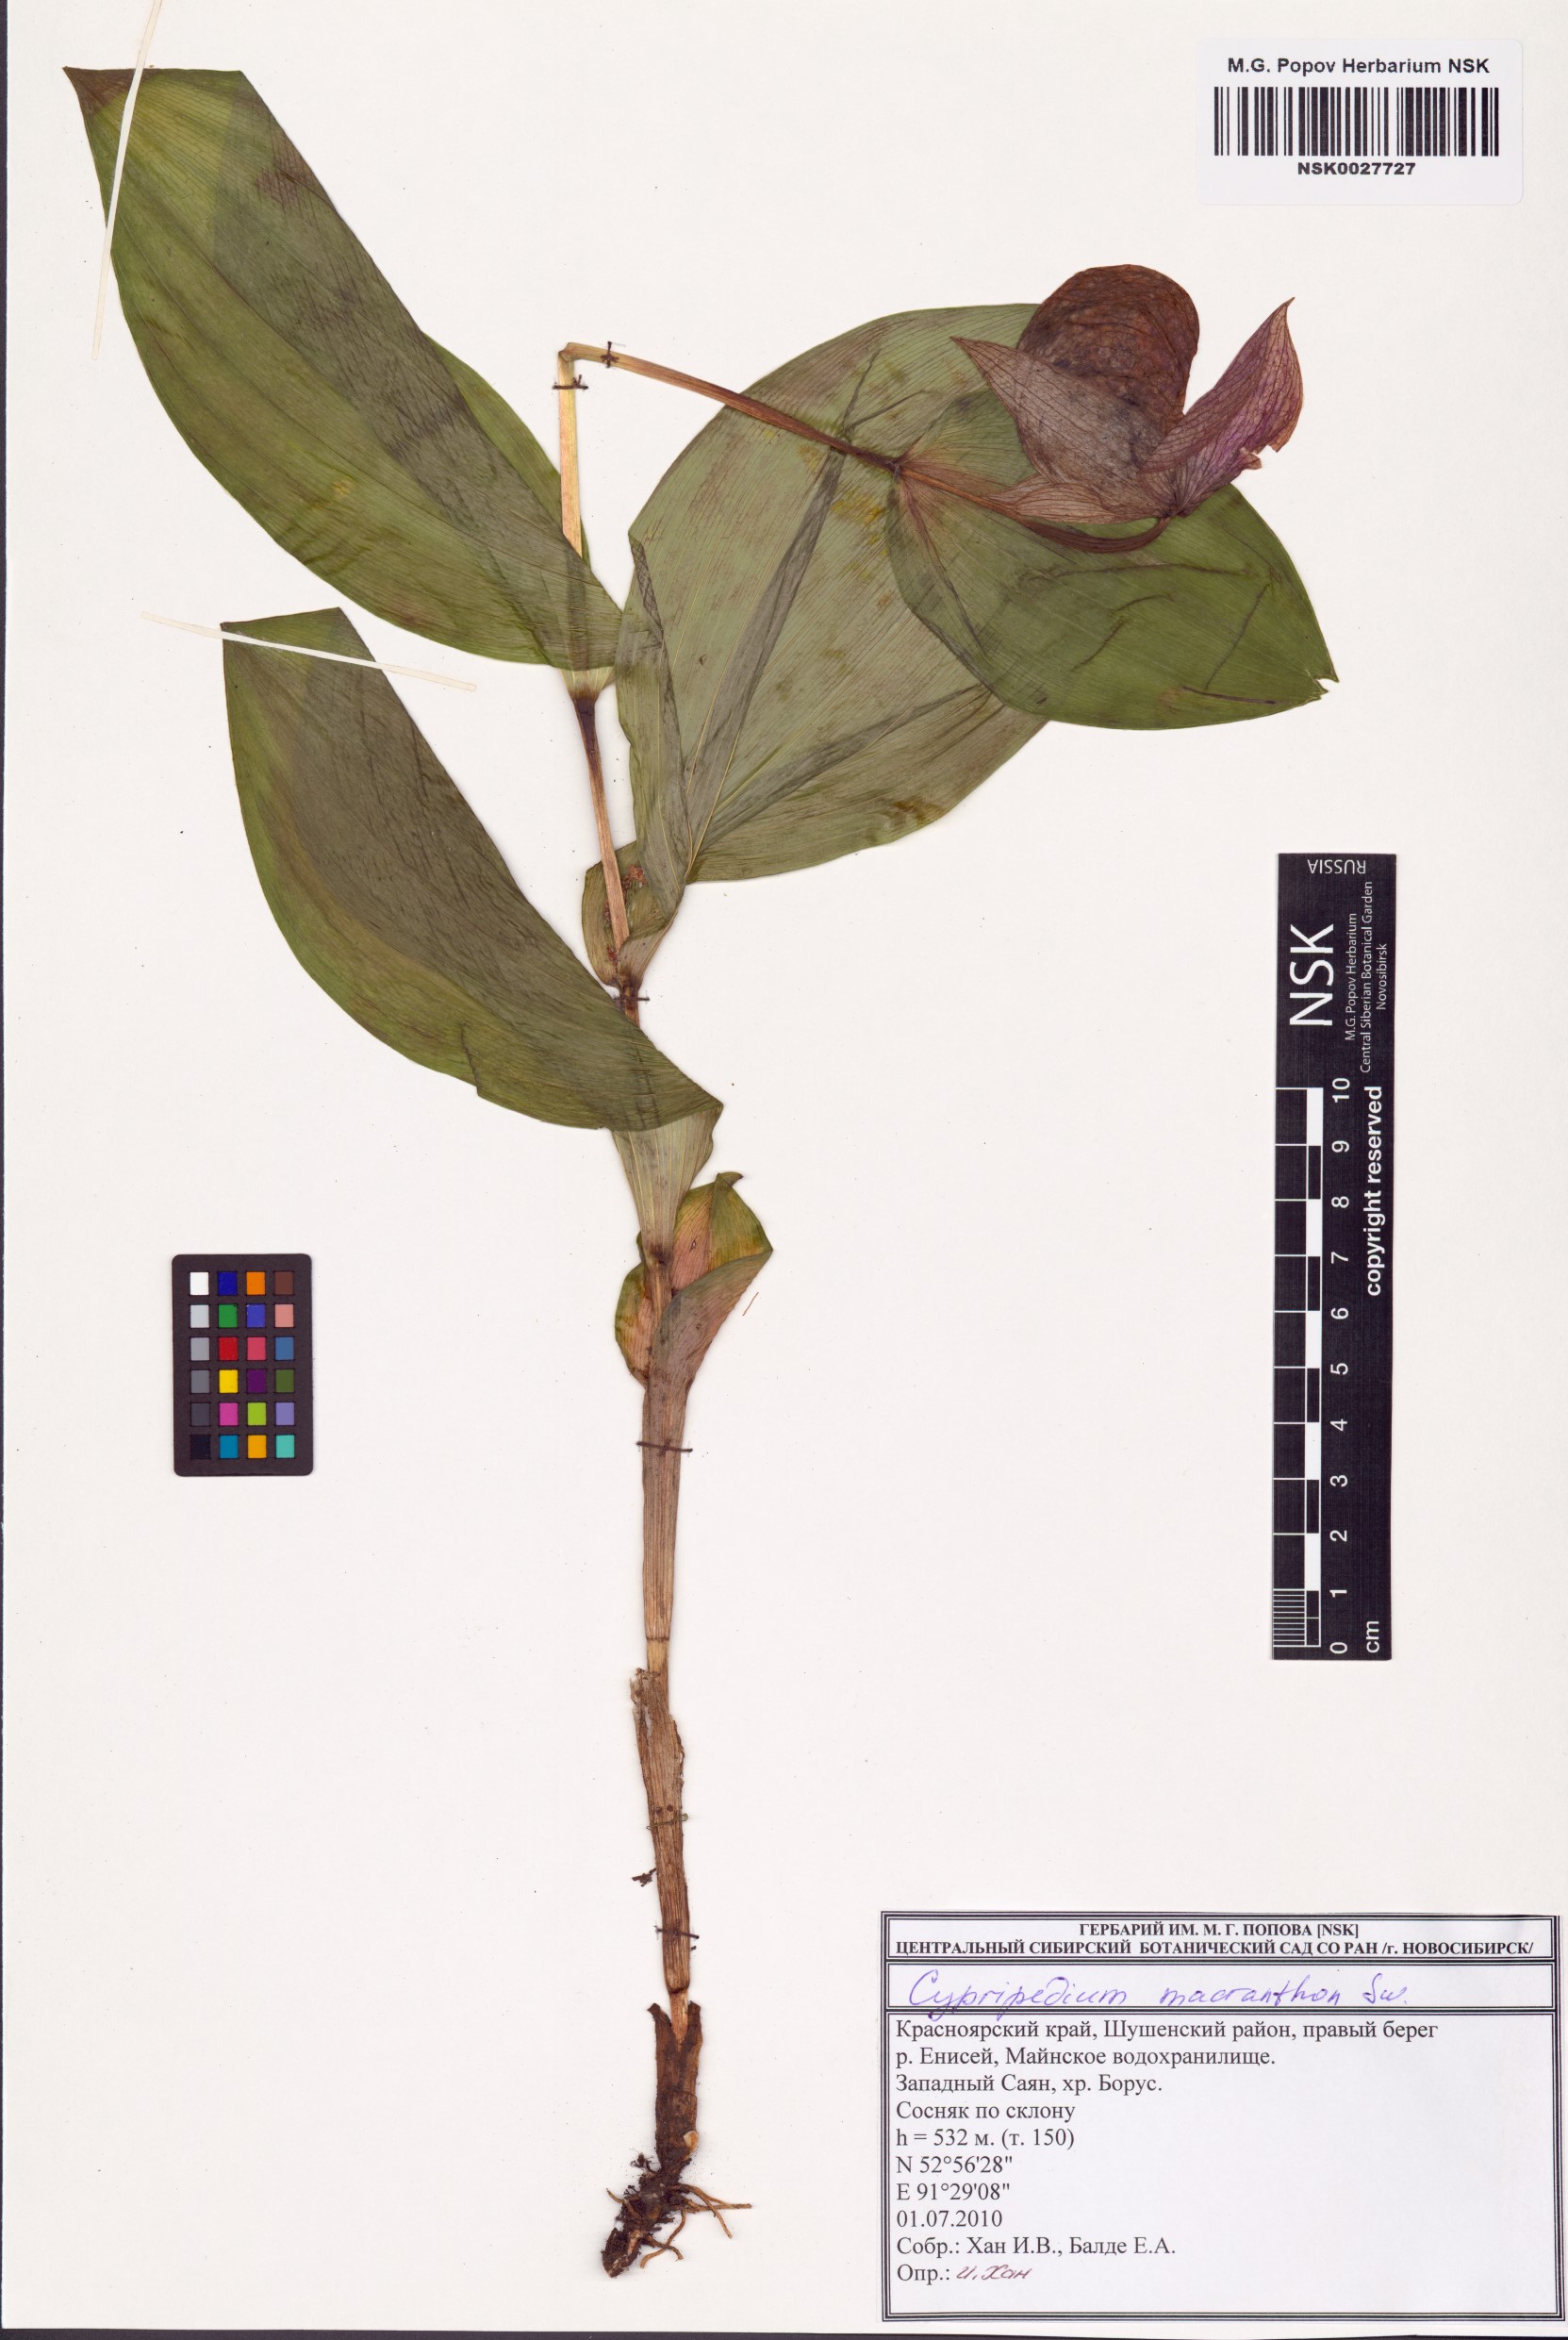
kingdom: Plantae
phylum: Tracheophyta
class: Liliopsida
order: Asparagales
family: Orchidaceae
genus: Cypripedium
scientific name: Cypripedium macranthos
